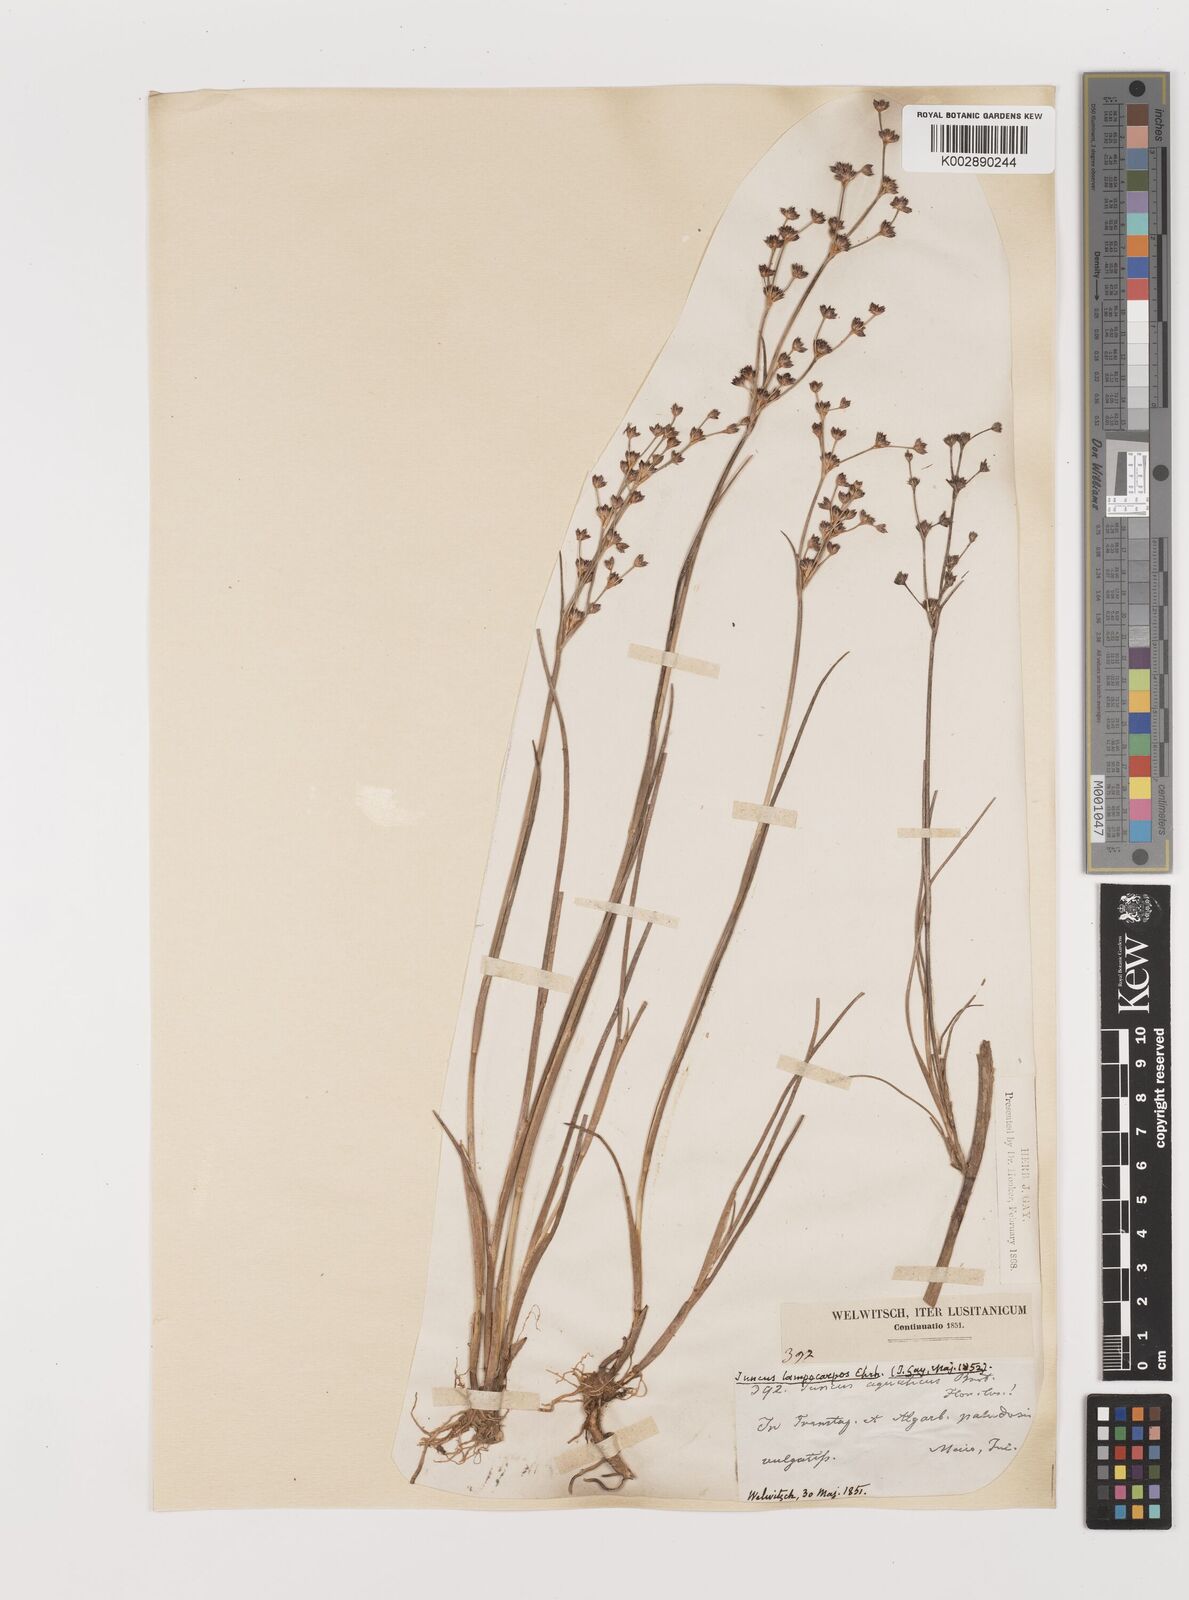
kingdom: Plantae
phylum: Tracheophyta
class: Liliopsida
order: Poales
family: Juncaceae
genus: Juncus
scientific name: Juncus articulatus
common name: Jointed rush
